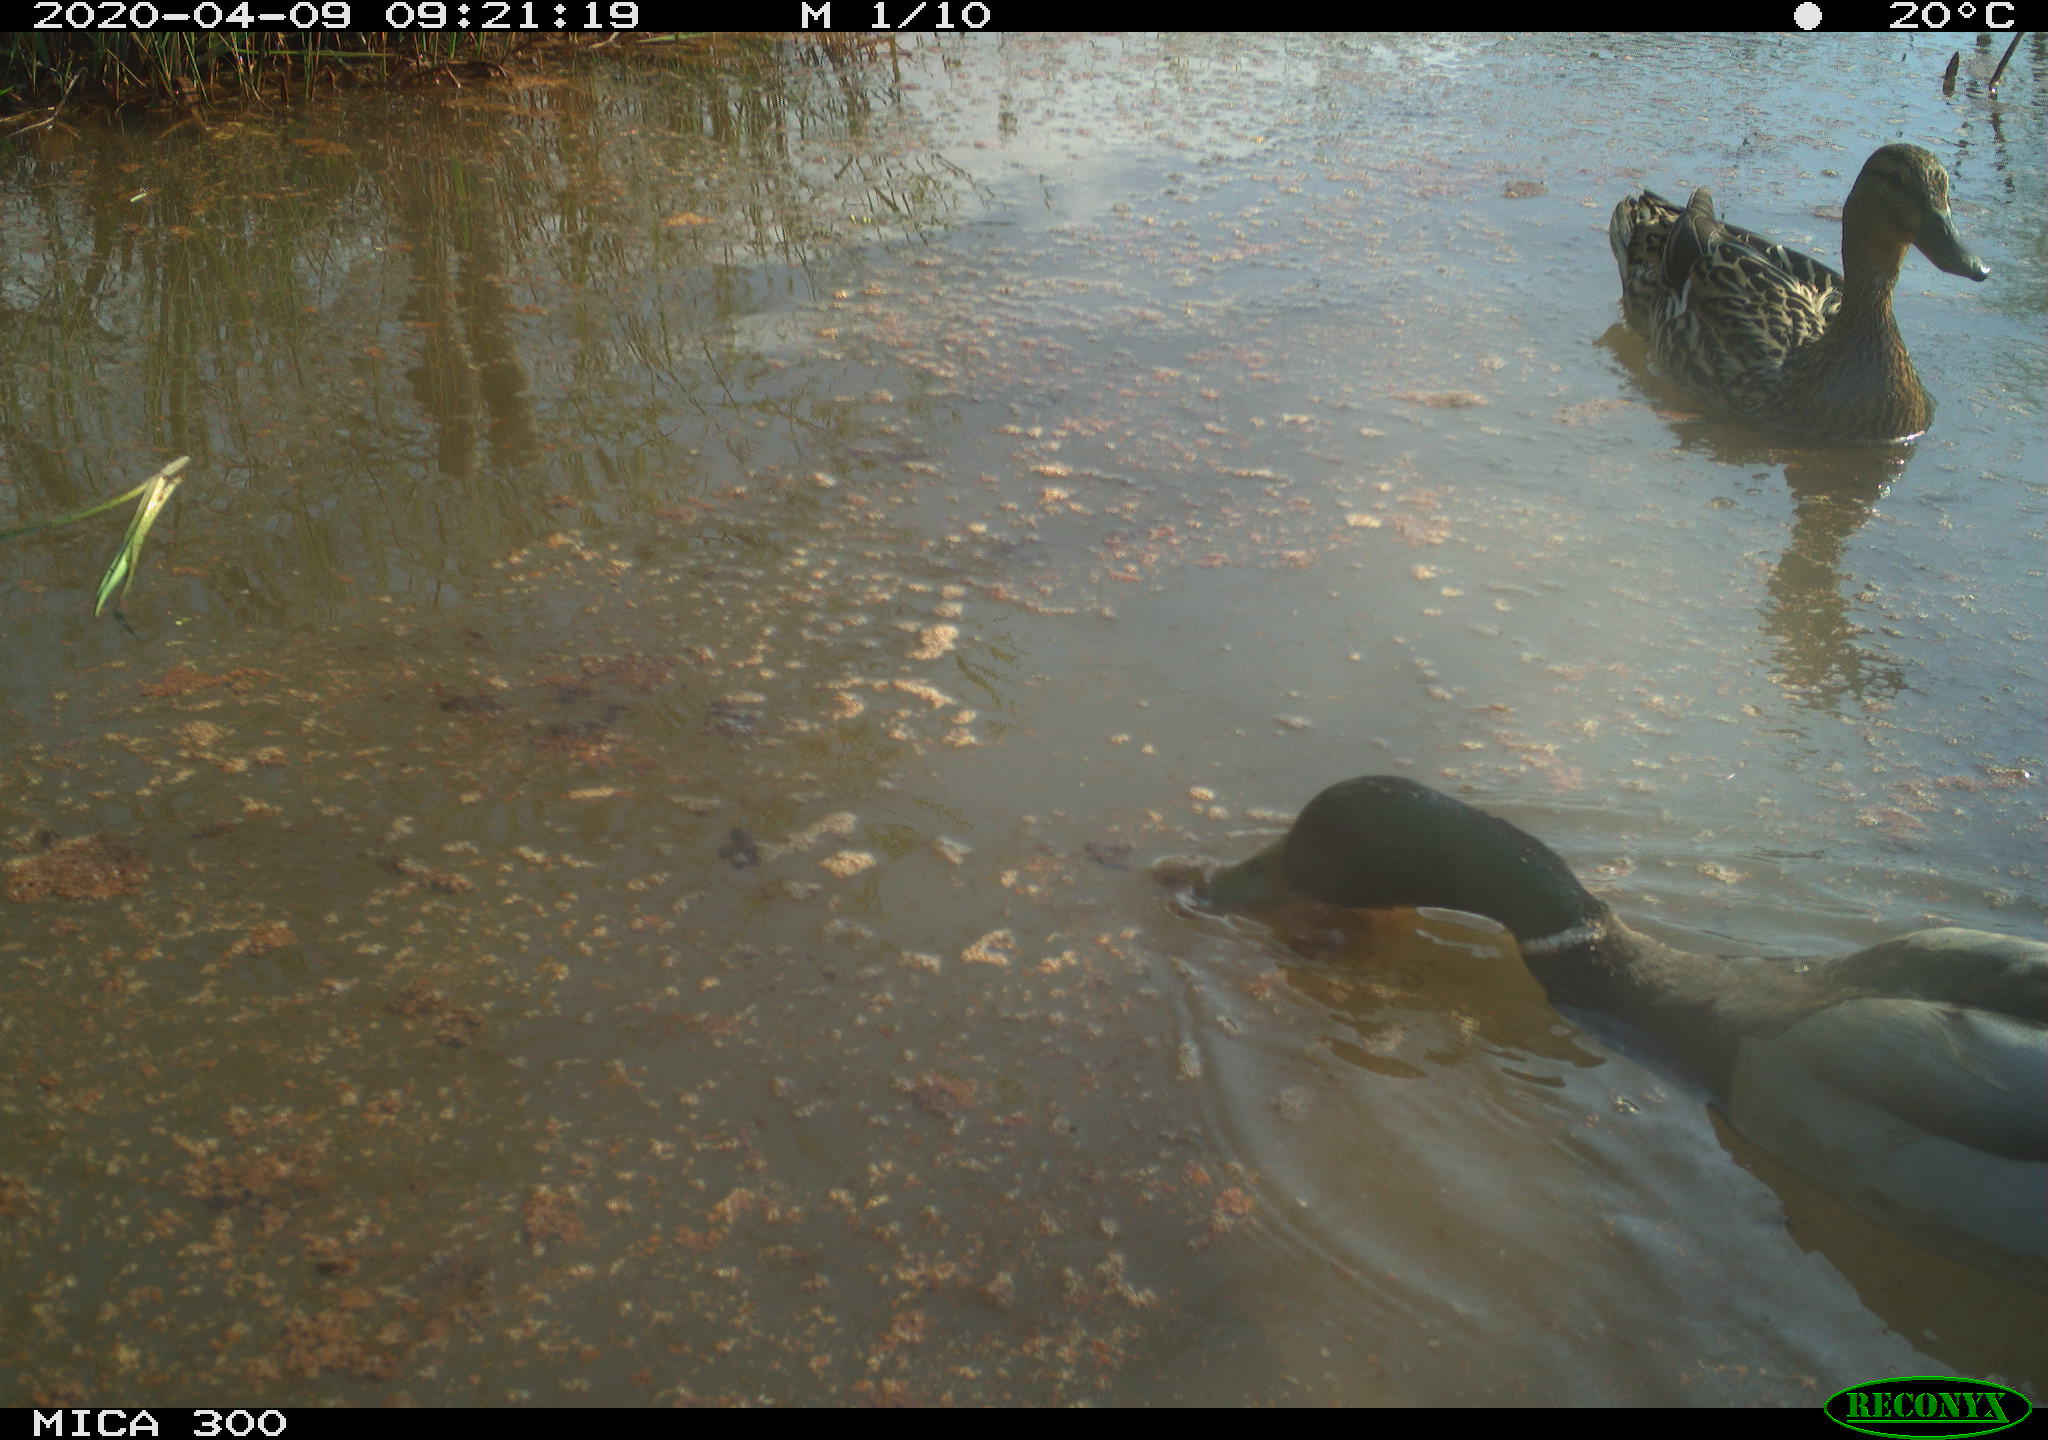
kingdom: Animalia
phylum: Chordata
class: Aves
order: Anseriformes
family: Anatidae
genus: Anas
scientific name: Anas platyrhynchos
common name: Mallard
